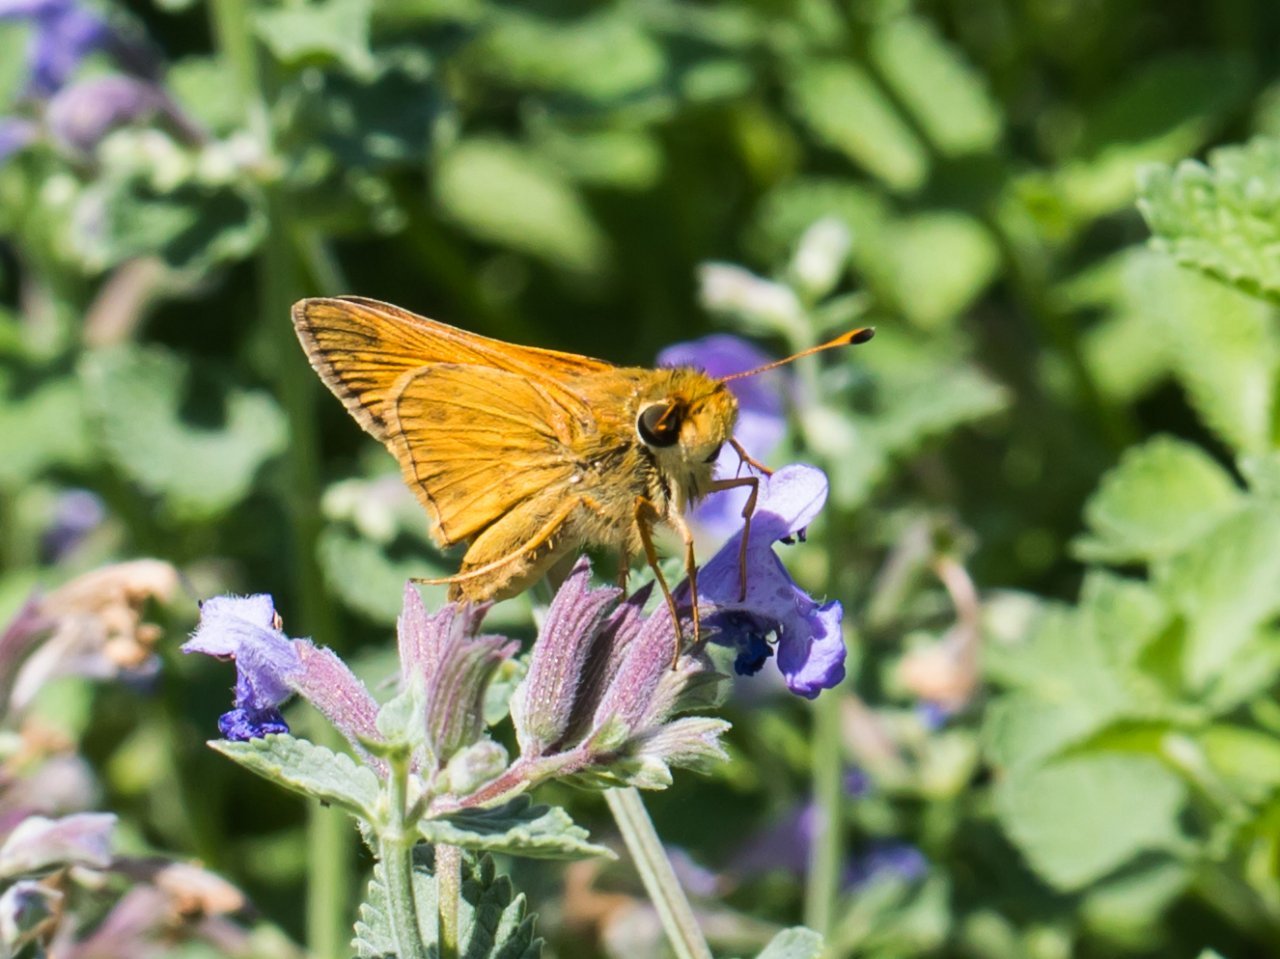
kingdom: Animalia
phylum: Arthropoda
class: Insecta
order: Lepidoptera
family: Hesperiidae
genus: Atalopedes
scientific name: Atalopedes campestris
